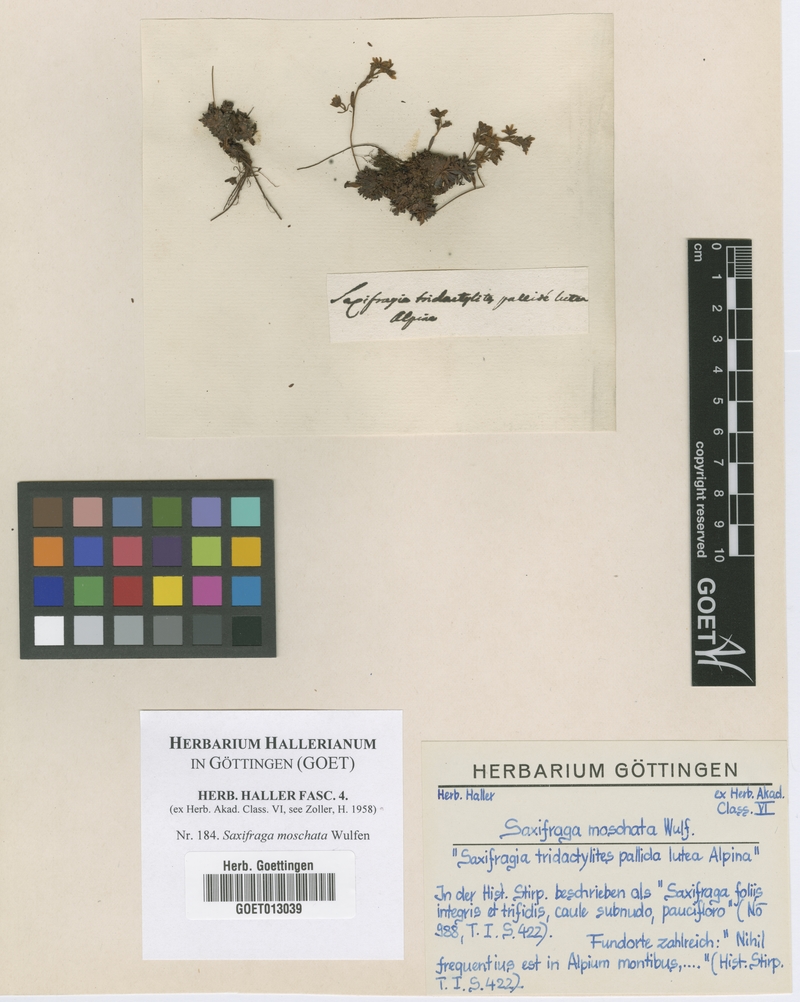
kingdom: Plantae
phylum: Tracheophyta
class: Magnoliopsida
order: Saxifragales
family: Saxifragaceae
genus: Saxifraga
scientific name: Saxifraga moschata
